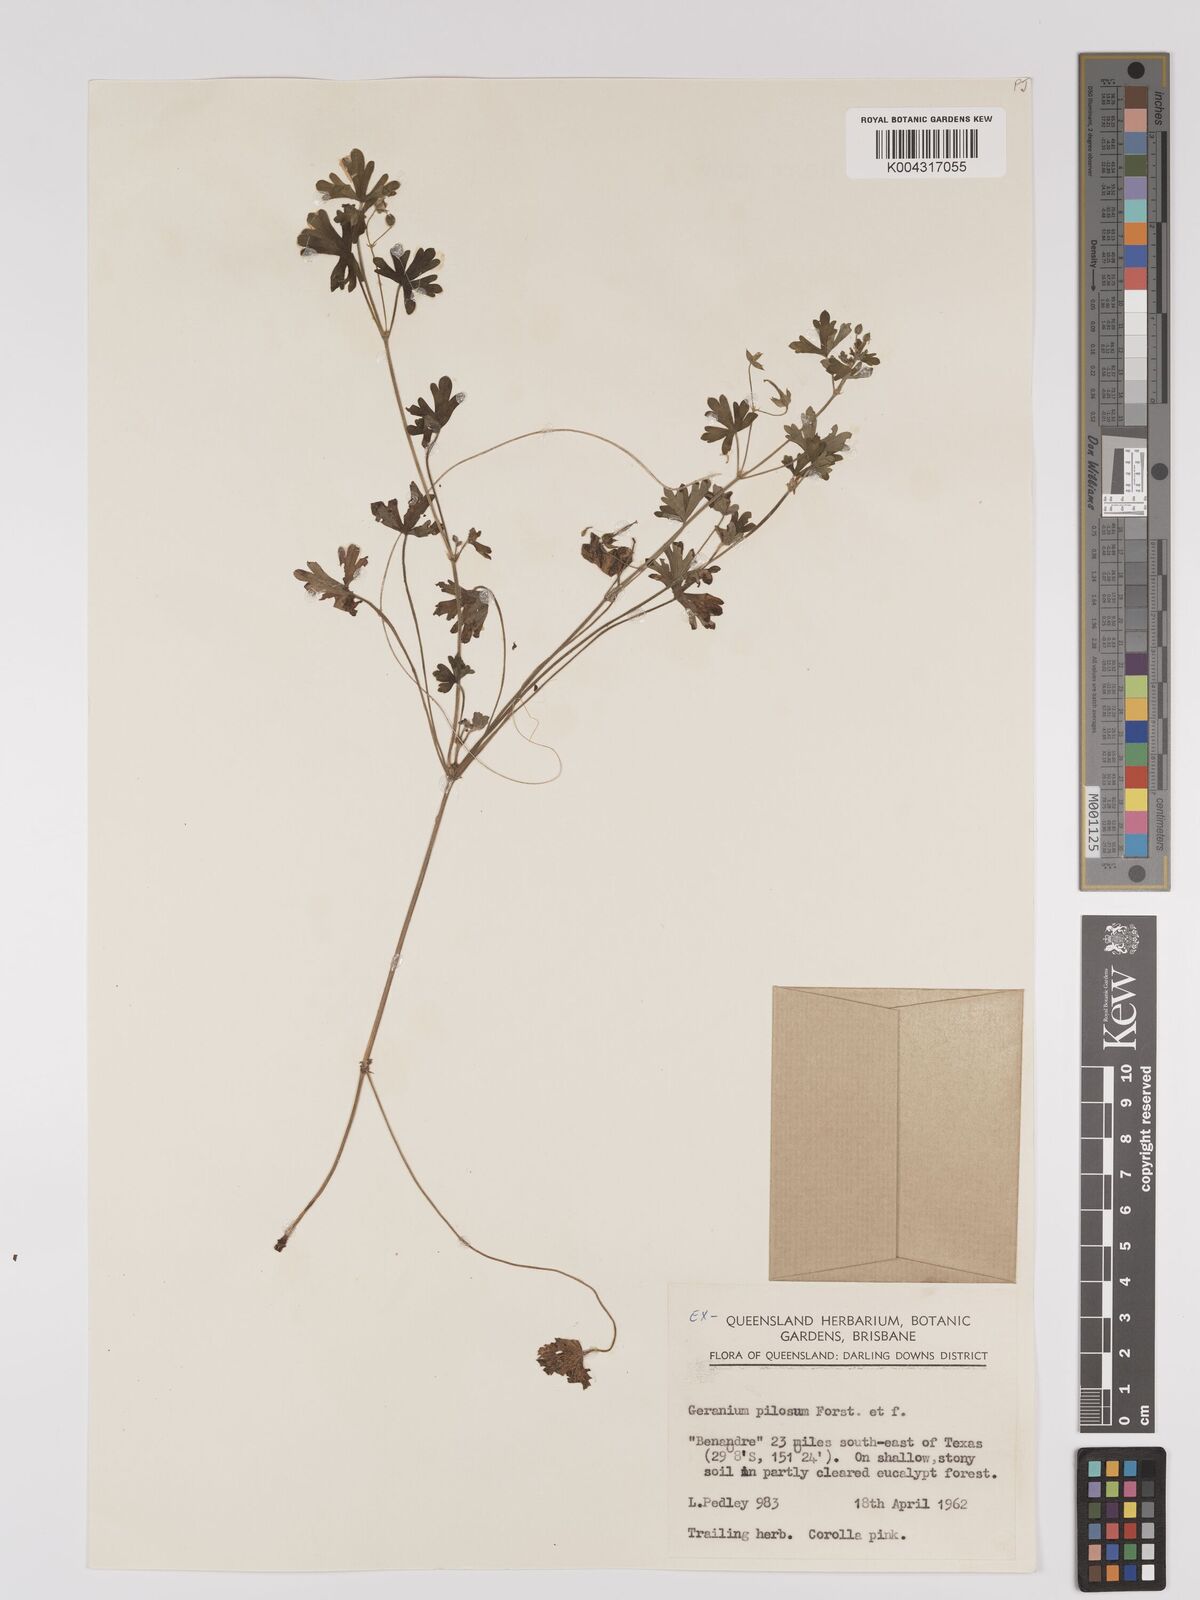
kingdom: Plantae
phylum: Tracheophyta
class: Magnoliopsida
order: Geraniales
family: Geraniaceae
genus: Geranium
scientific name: Geranium solanderi
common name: Solander's geranium
